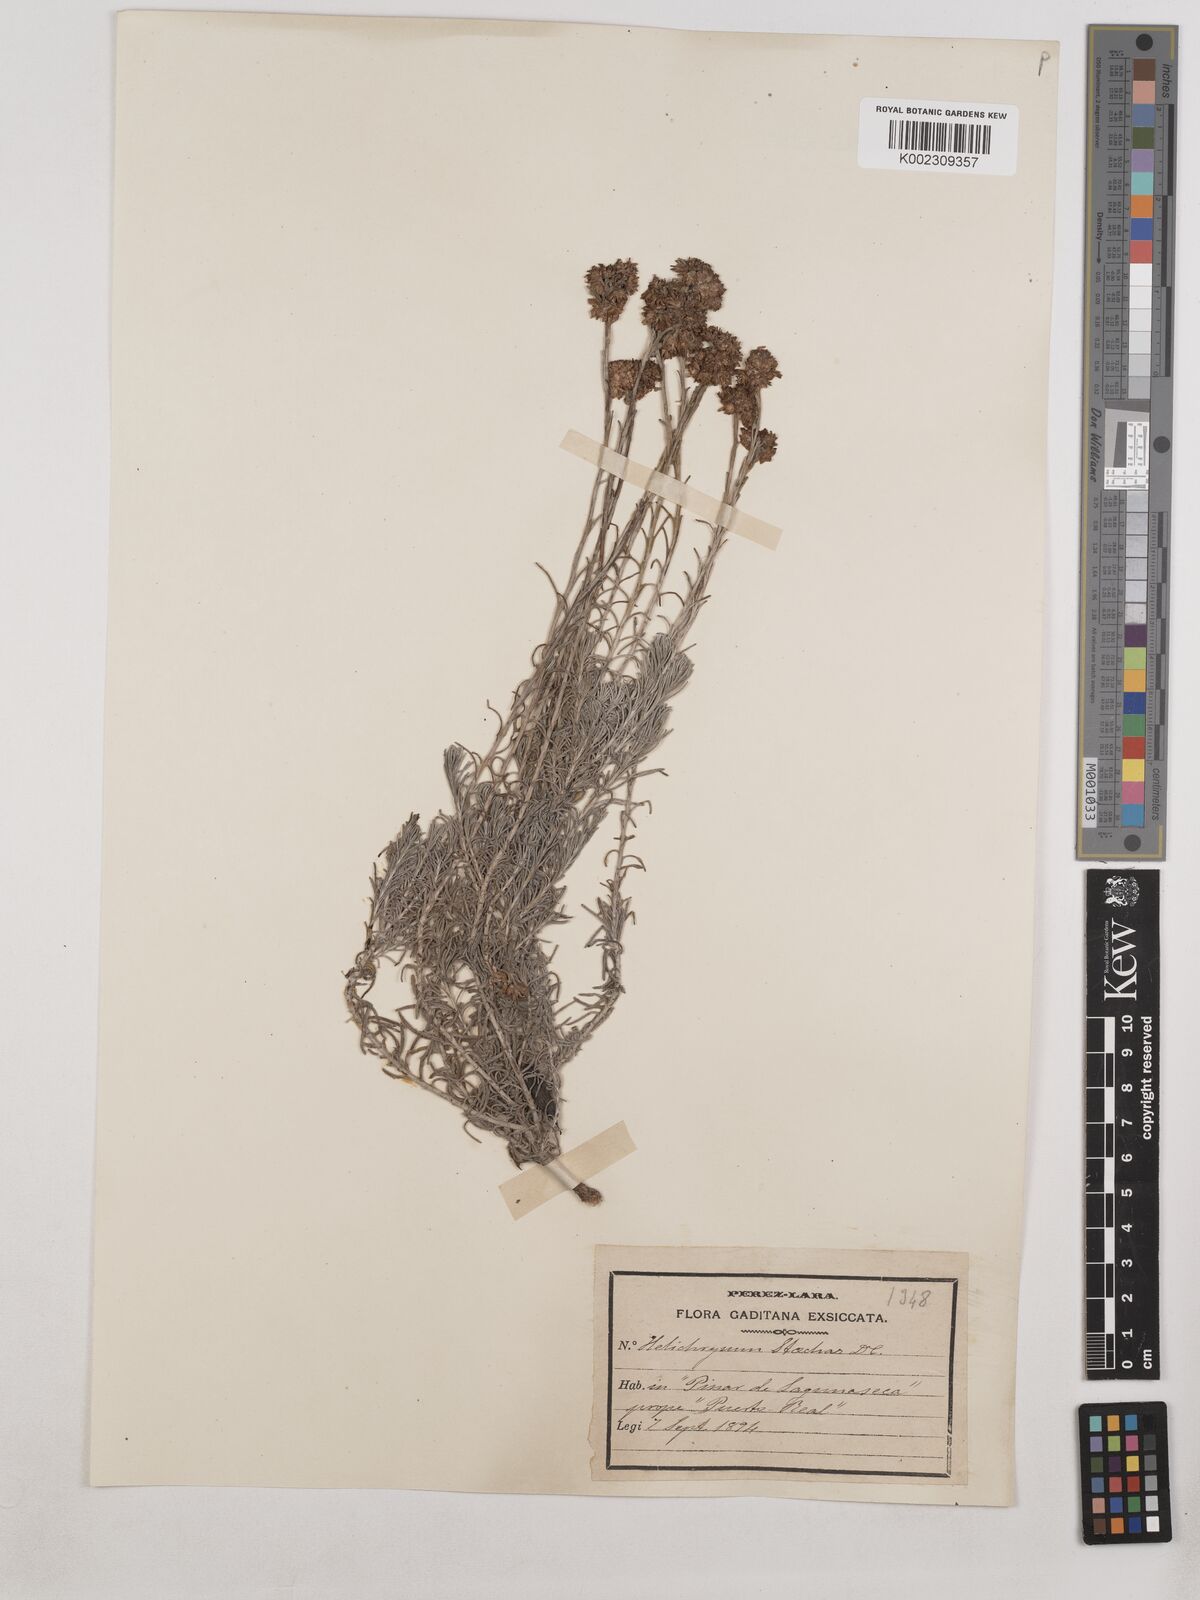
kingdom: Plantae
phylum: Tracheophyta
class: Magnoliopsida
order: Asterales
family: Asteraceae
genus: Helichrysum
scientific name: Helichrysum stoechas
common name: Goldilocks
